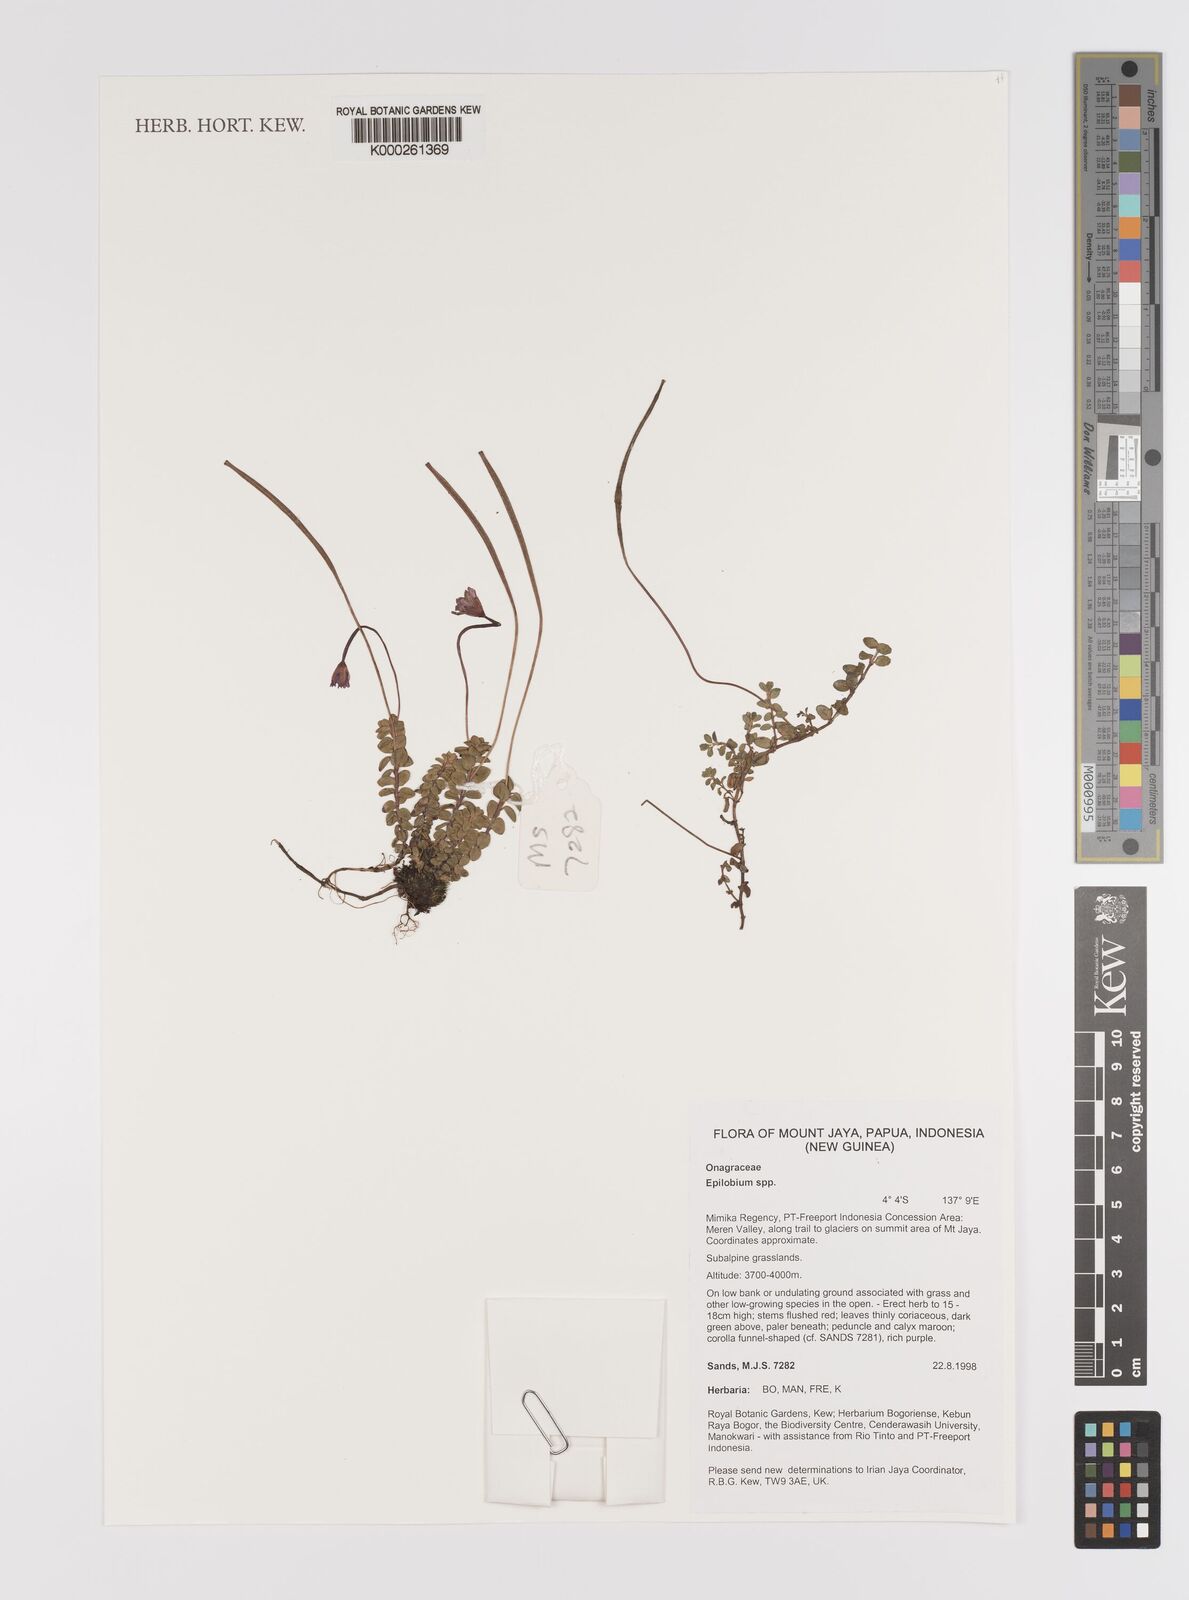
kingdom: Plantae
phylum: Tracheophyta
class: Magnoliopsida
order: Myrtales
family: Onagraceae
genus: Epilobium
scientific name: Epilobium
